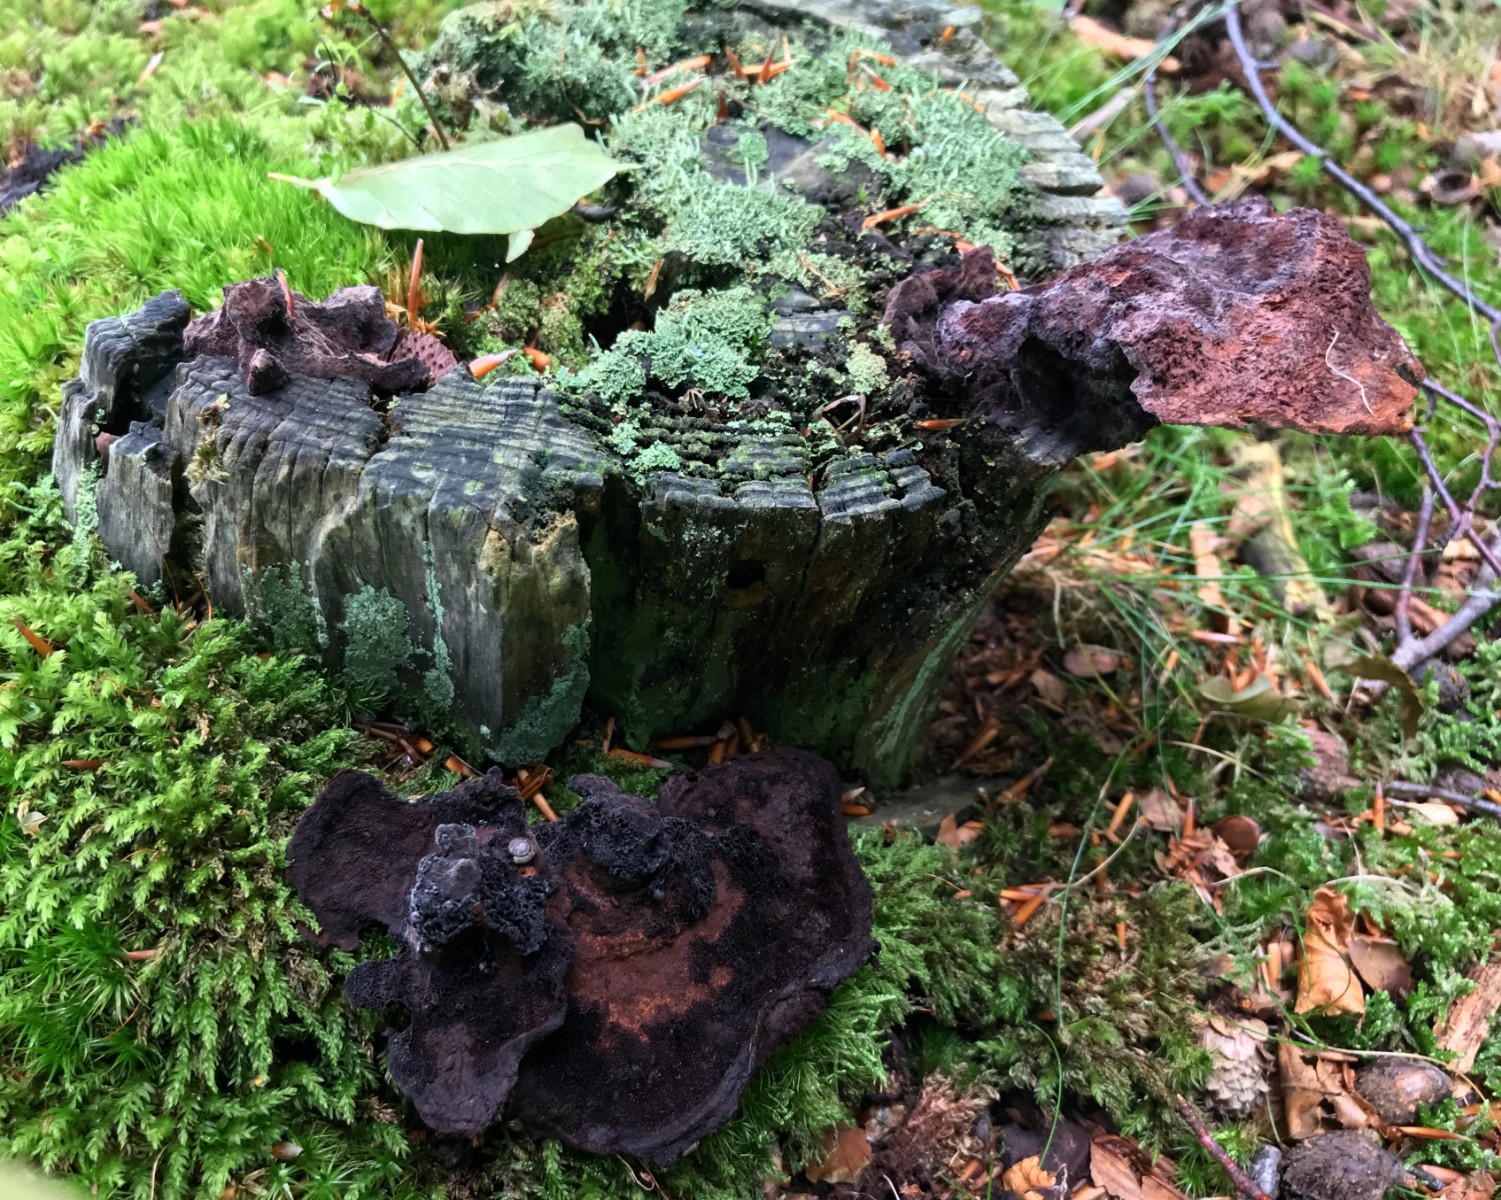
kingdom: Fungi
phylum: Basidiomycota
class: Agaricomycetes
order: Polyporales
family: Laetiporaceae
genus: Phaeolus
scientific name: Phaeolus schweinitzii
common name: brunporesvamp
